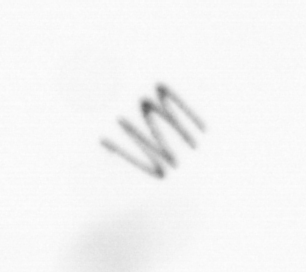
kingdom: Chromista
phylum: Ochrophyta
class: Bacillariophyceae
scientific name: Bacillariophyceae
